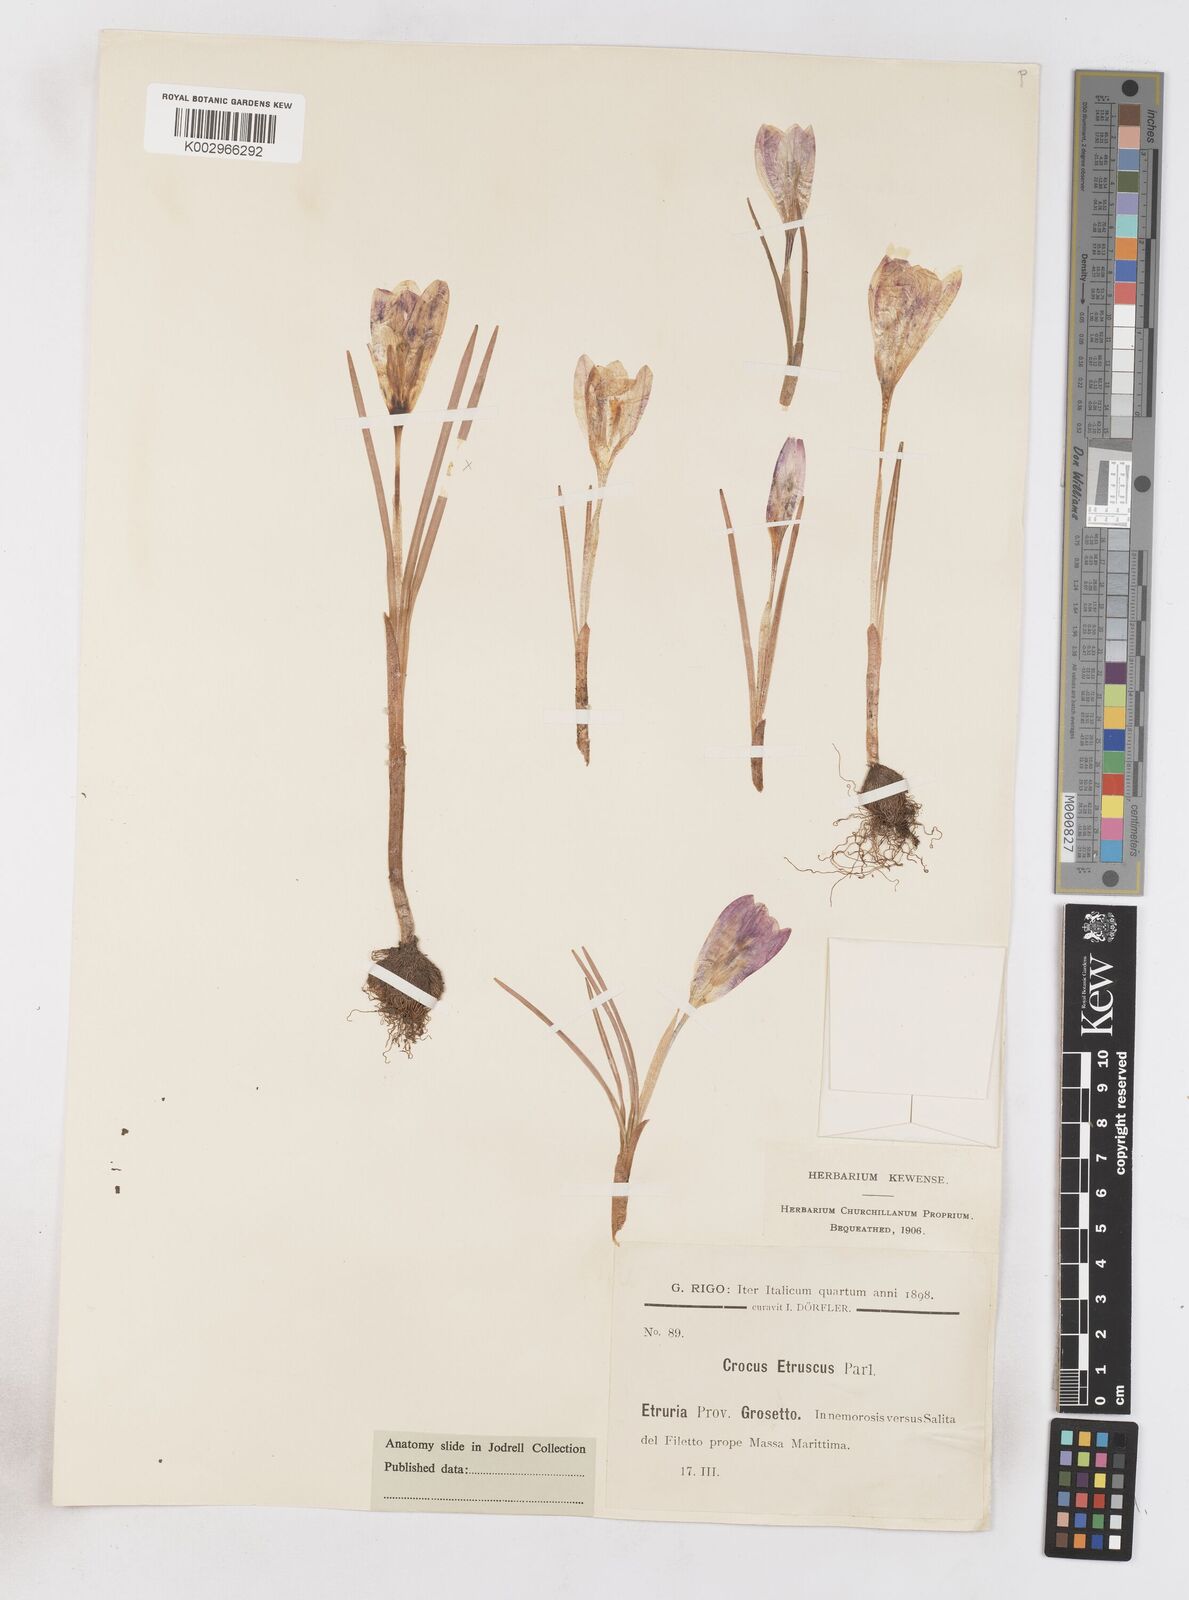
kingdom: Plantae
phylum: Tracheophyta
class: Liliopsida
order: Asparagales
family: Iridaceae
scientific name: Iridaceae
